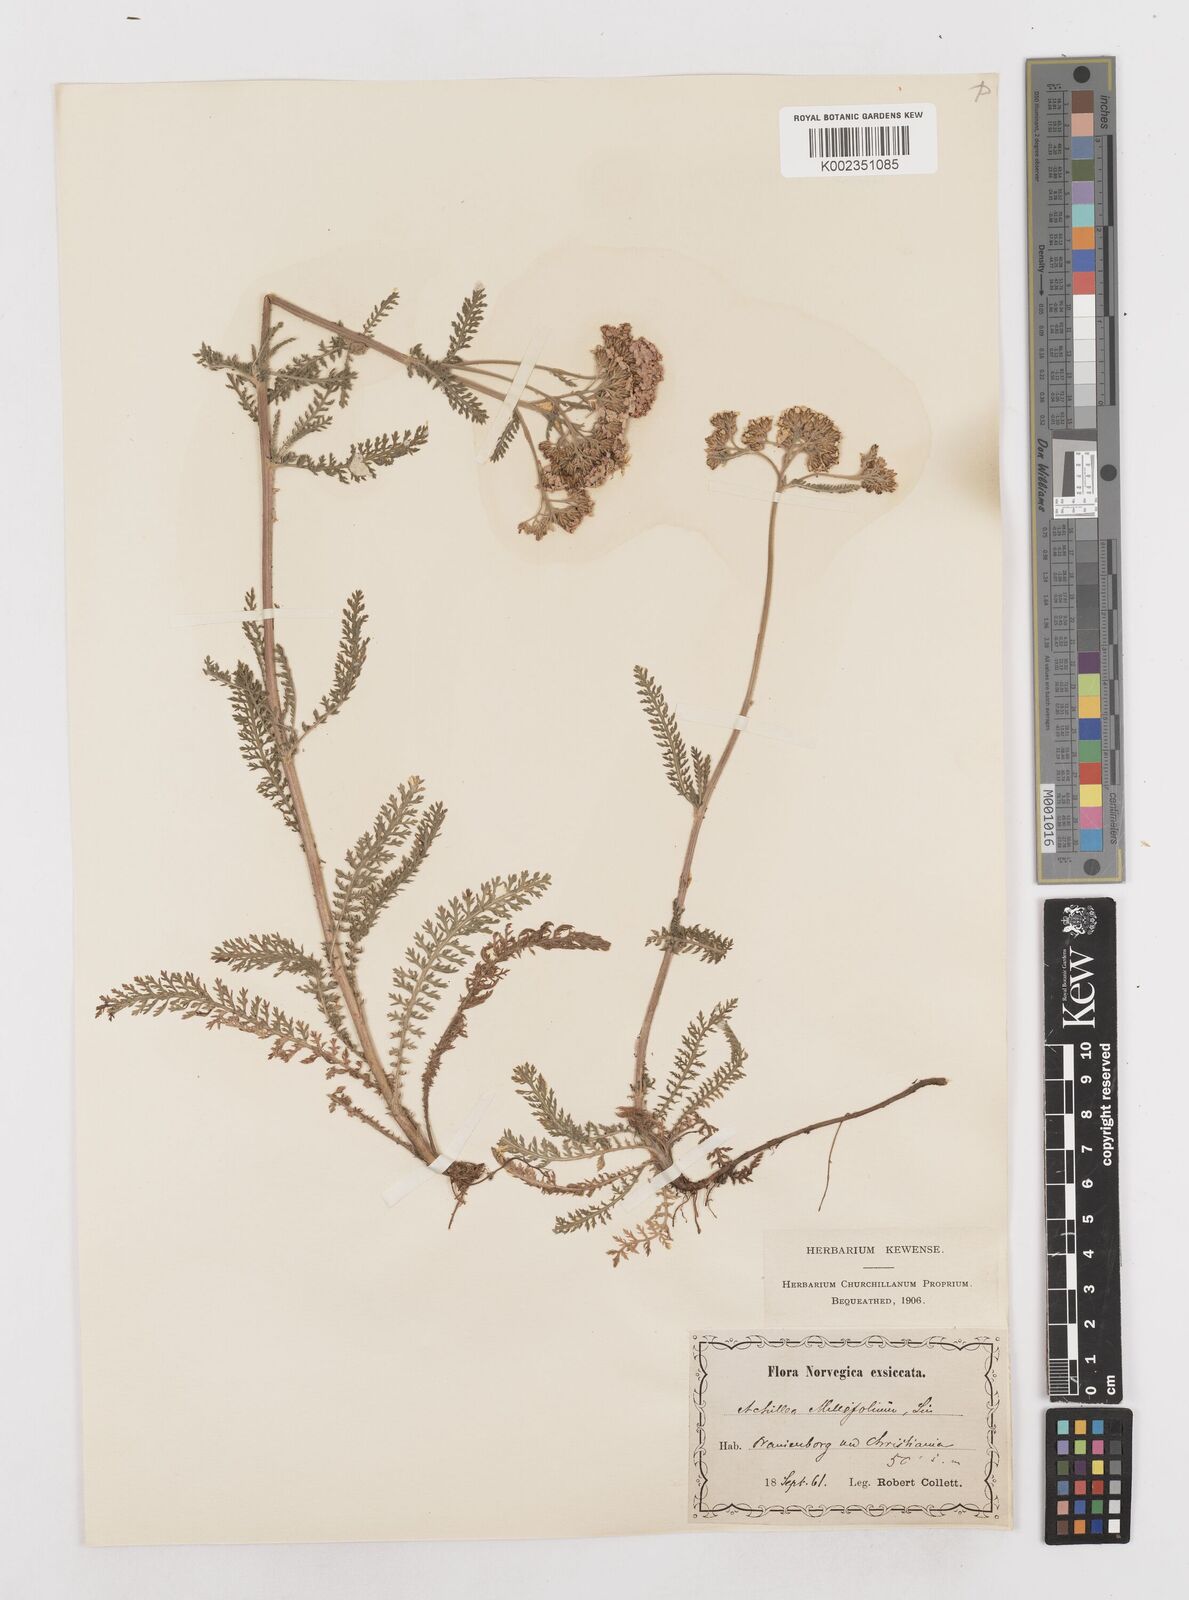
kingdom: Plantae
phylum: Tracheophyta
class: Magnoliopsida
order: Asterales
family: Asteraceae
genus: Achillea
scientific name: Achillea millefolium
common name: Yarrow
